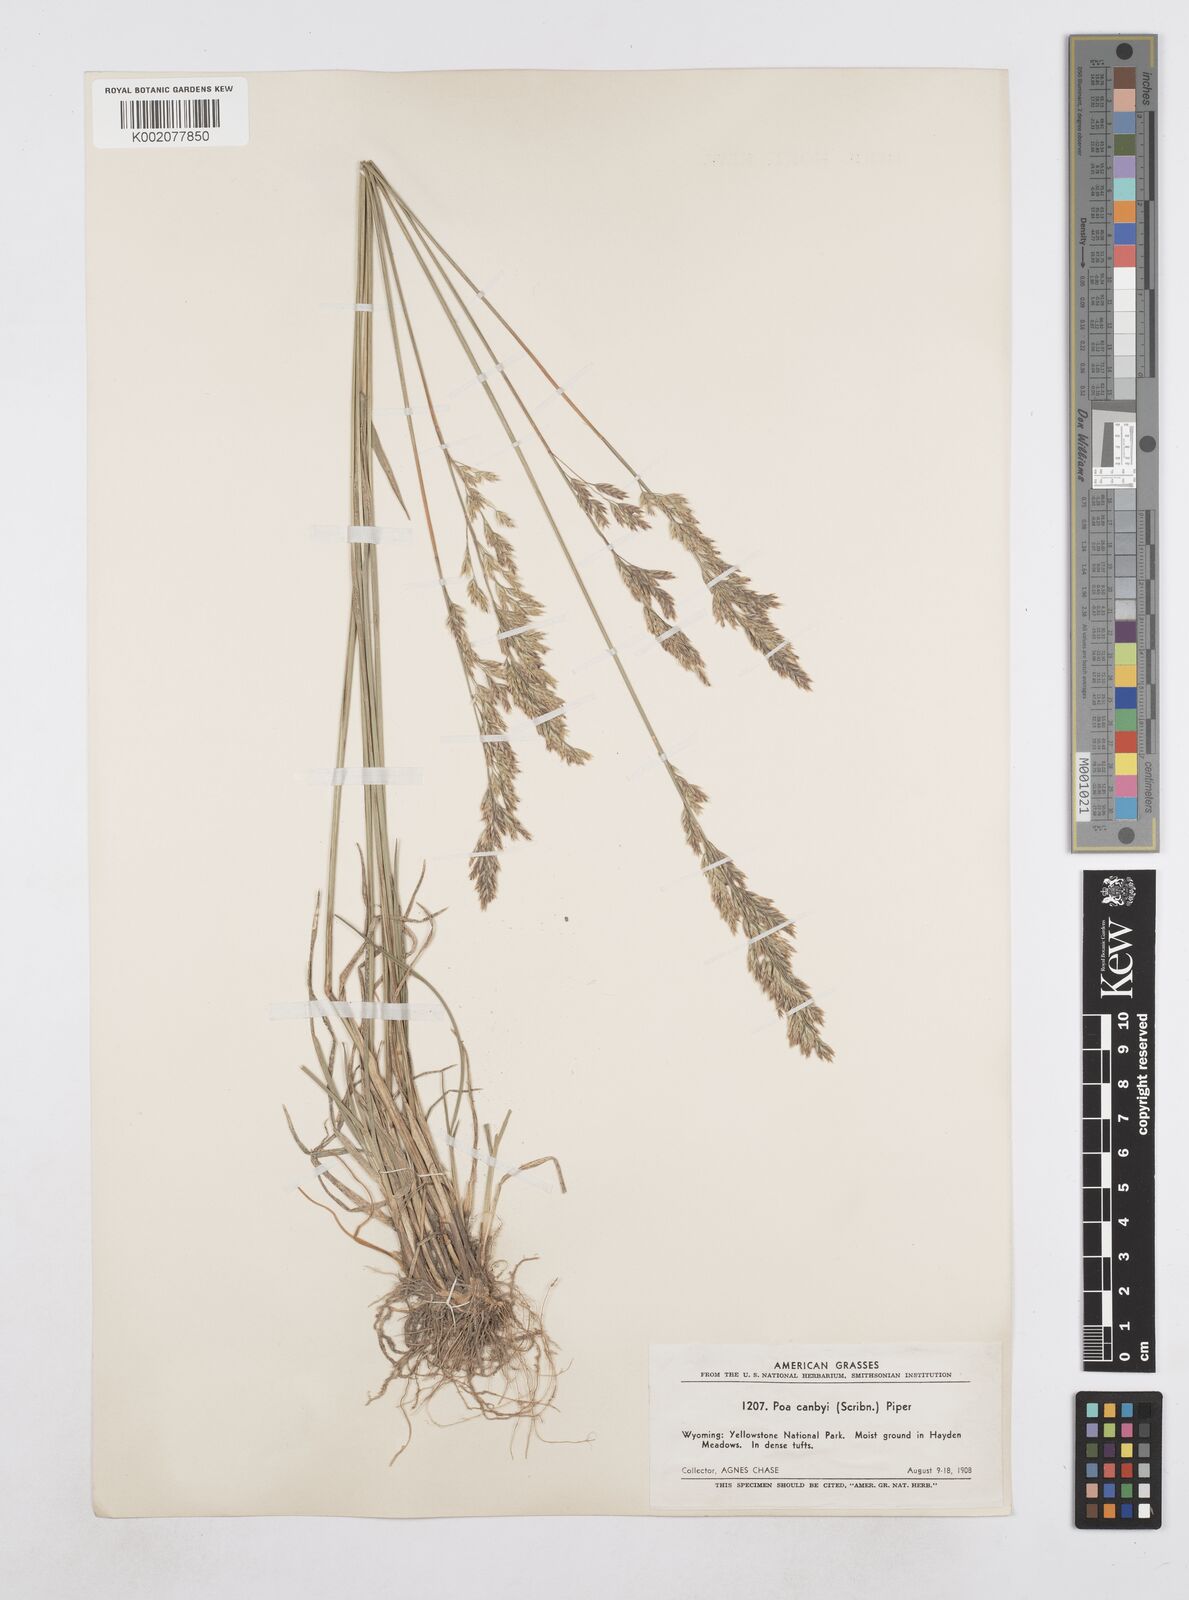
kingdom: Plantae
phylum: Tracheophyta
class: Liliopsida
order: Poales
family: Poaceae
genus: Poa
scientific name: Poa secunda
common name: Sandberg bluegrass
